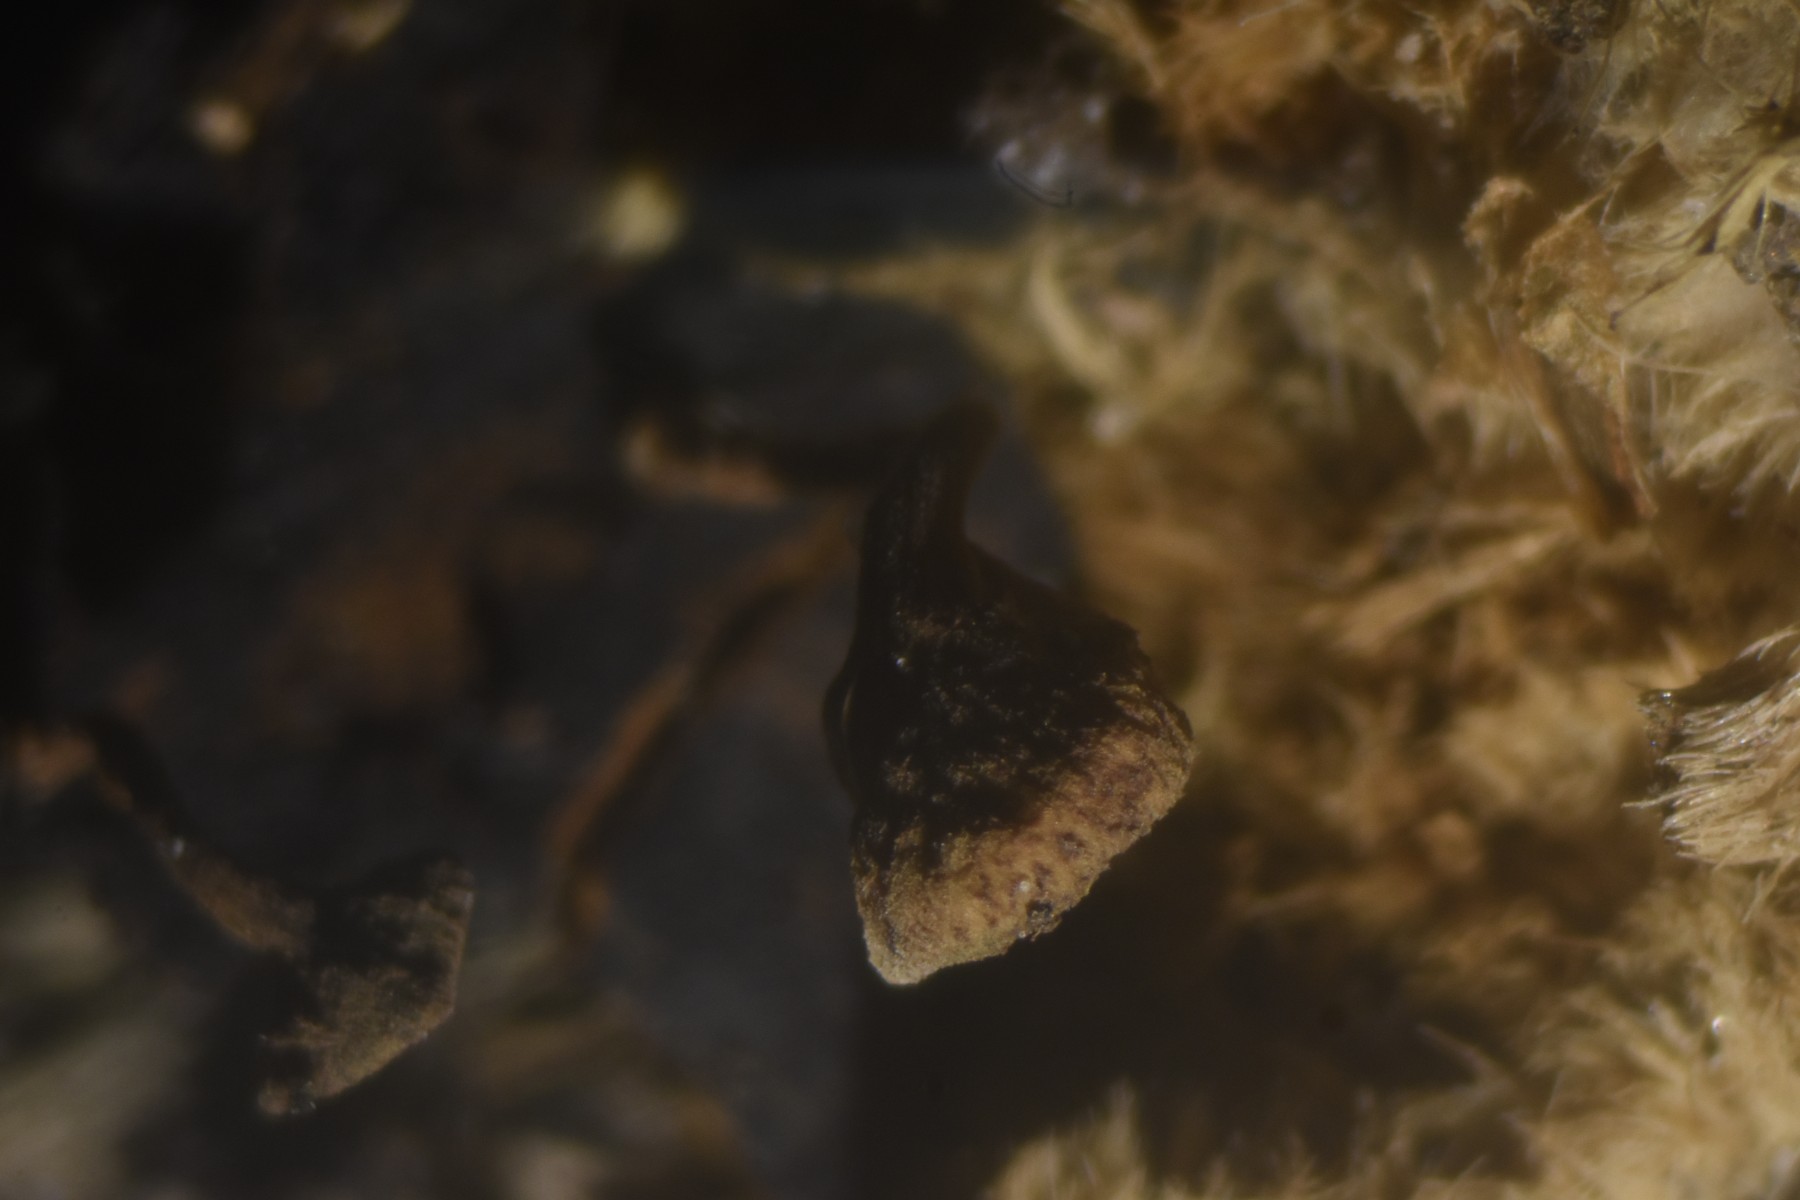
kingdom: Fungi
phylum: Ascomycota
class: Leotiomycetes
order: Helotiales
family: Rutstroemiaceae
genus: Lanzia
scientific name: Lanzia echinophila
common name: kastanie-brunskive
